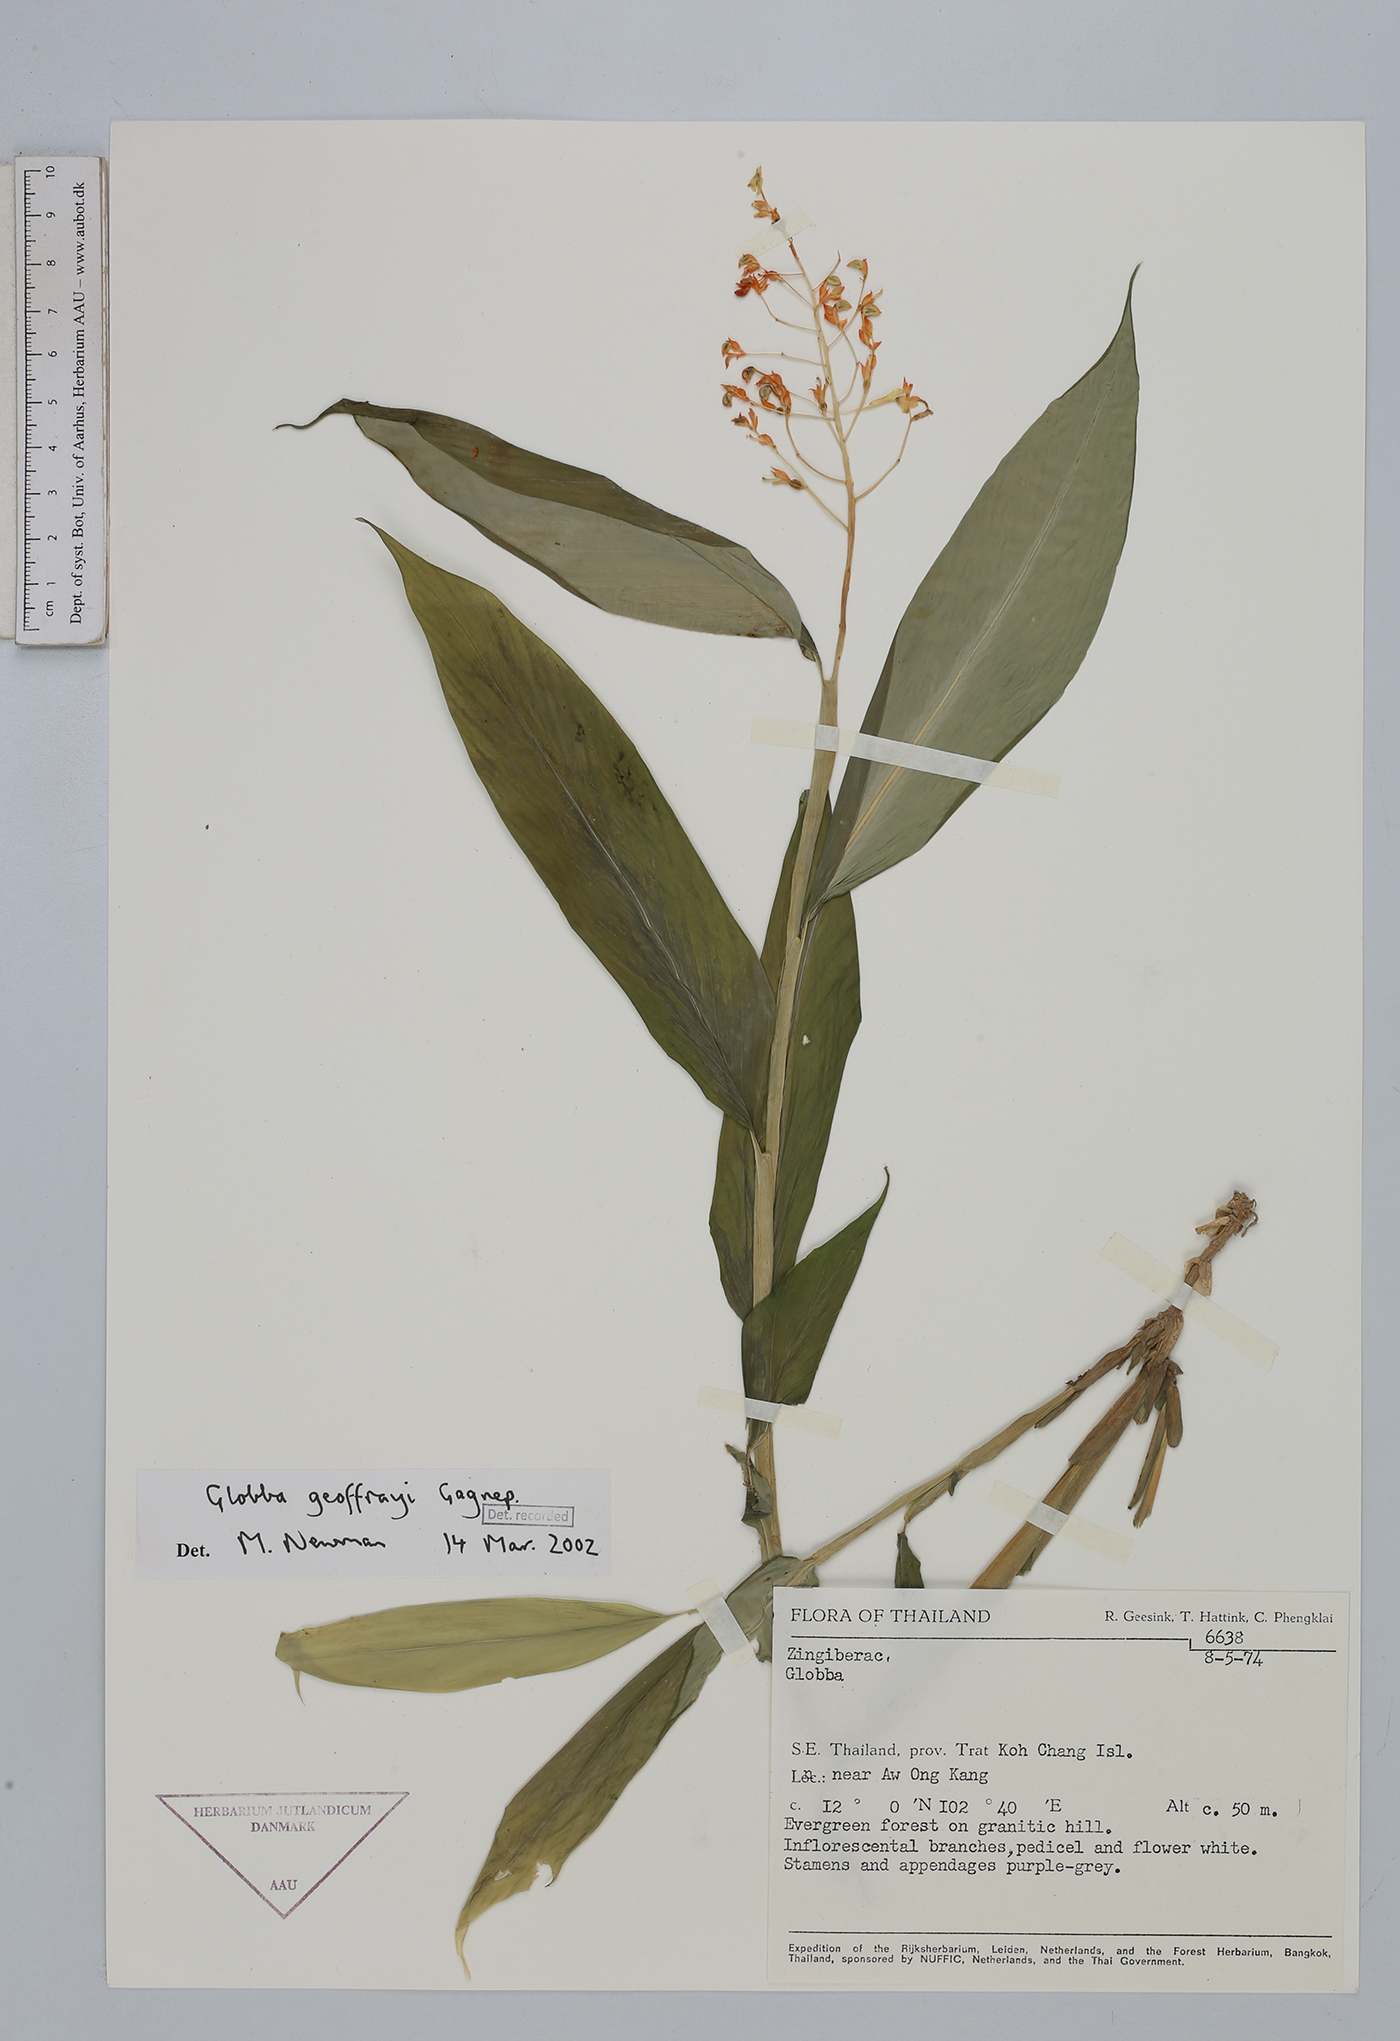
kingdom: Plantae
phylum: Tracheophyta
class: Liliopsida
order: Zingiberales
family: Zingiberaceae
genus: Globba
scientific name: Globba geoffrayi
